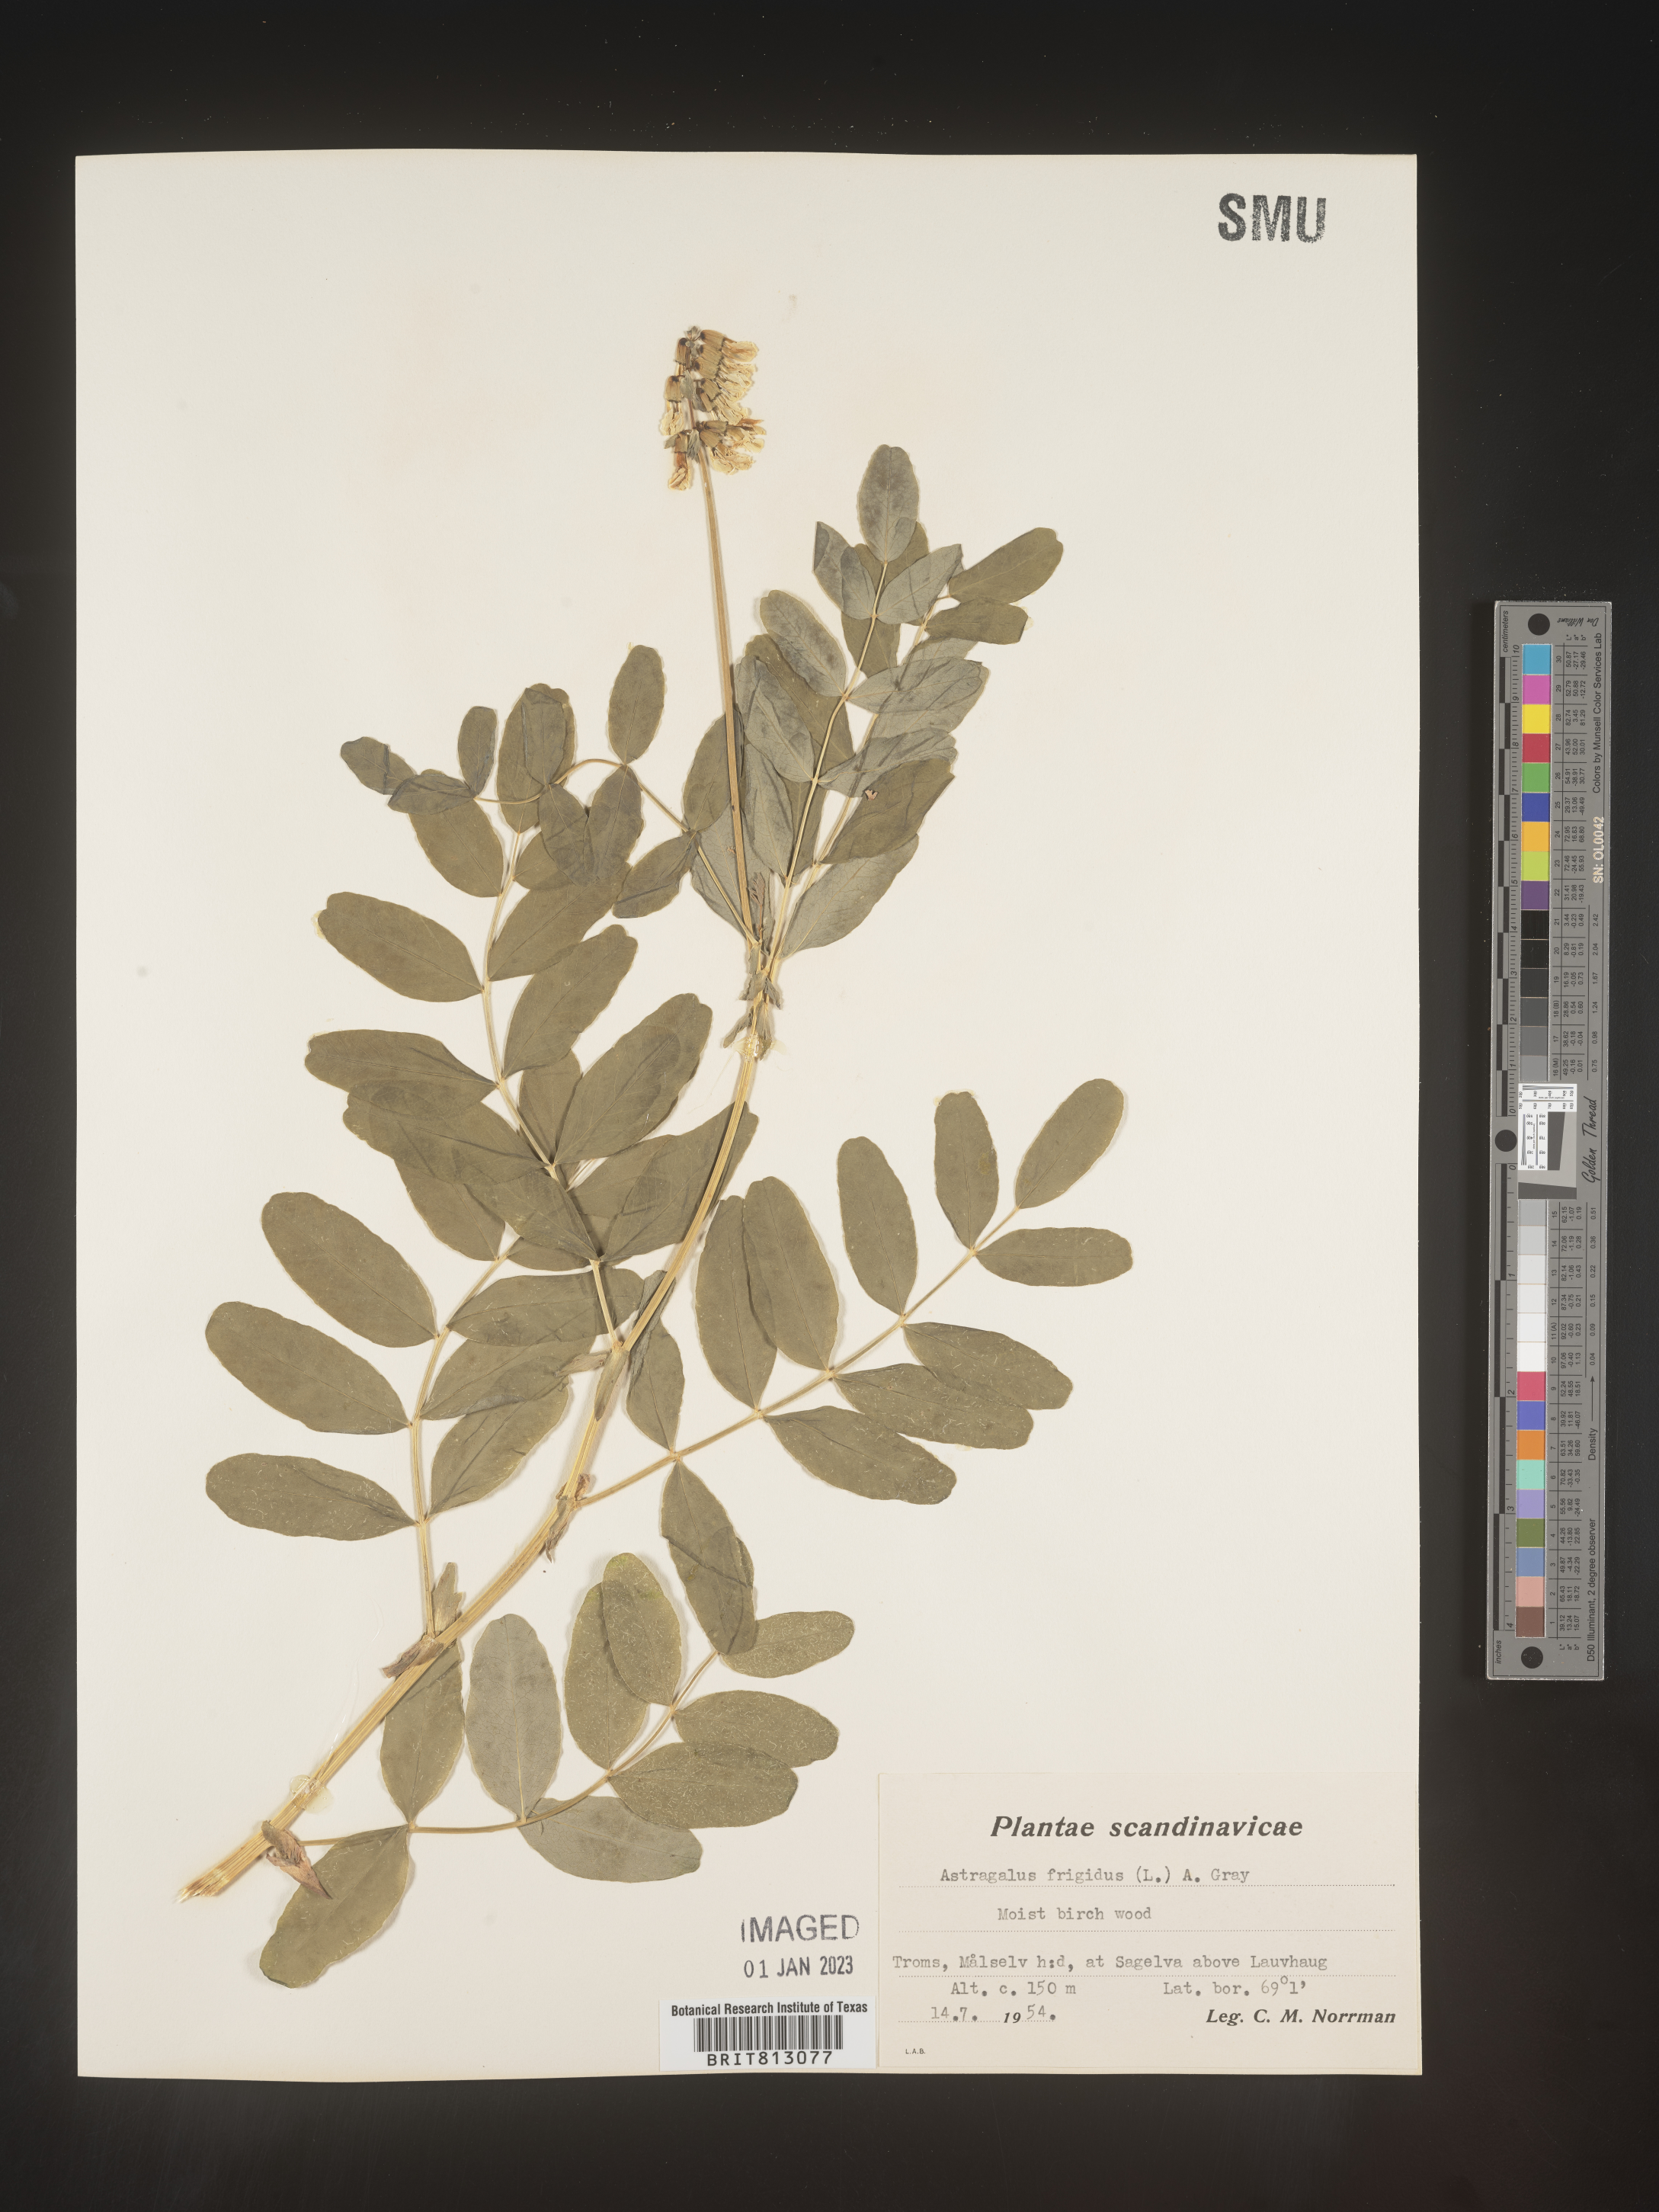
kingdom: Plantae
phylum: Tracheophyta
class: Magnoliopsida
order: Fabales
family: Fabaceae
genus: Astragalus
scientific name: Astragalus
